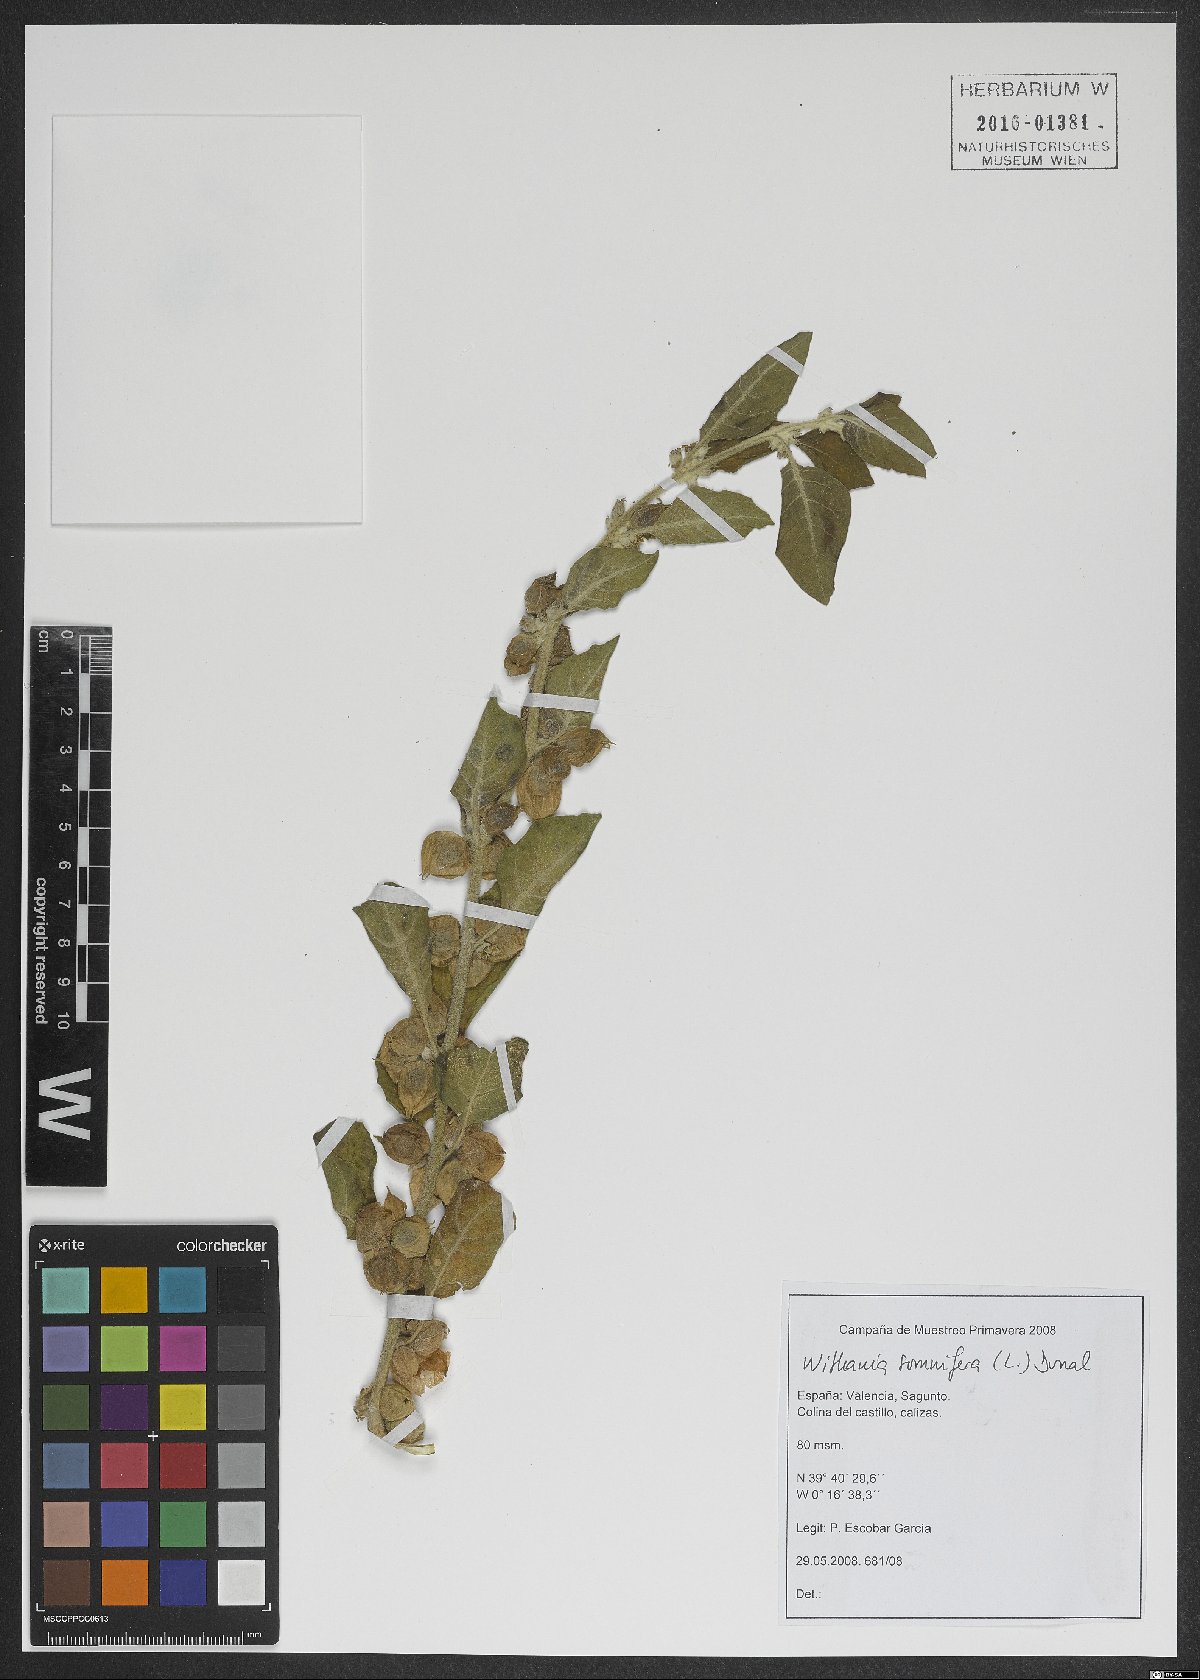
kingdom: Plantae
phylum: Tracheophyta
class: Magnoliopsida
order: Solanales
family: Solanaceae
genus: Withania
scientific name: Withania somnifera
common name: Winter-cherry
